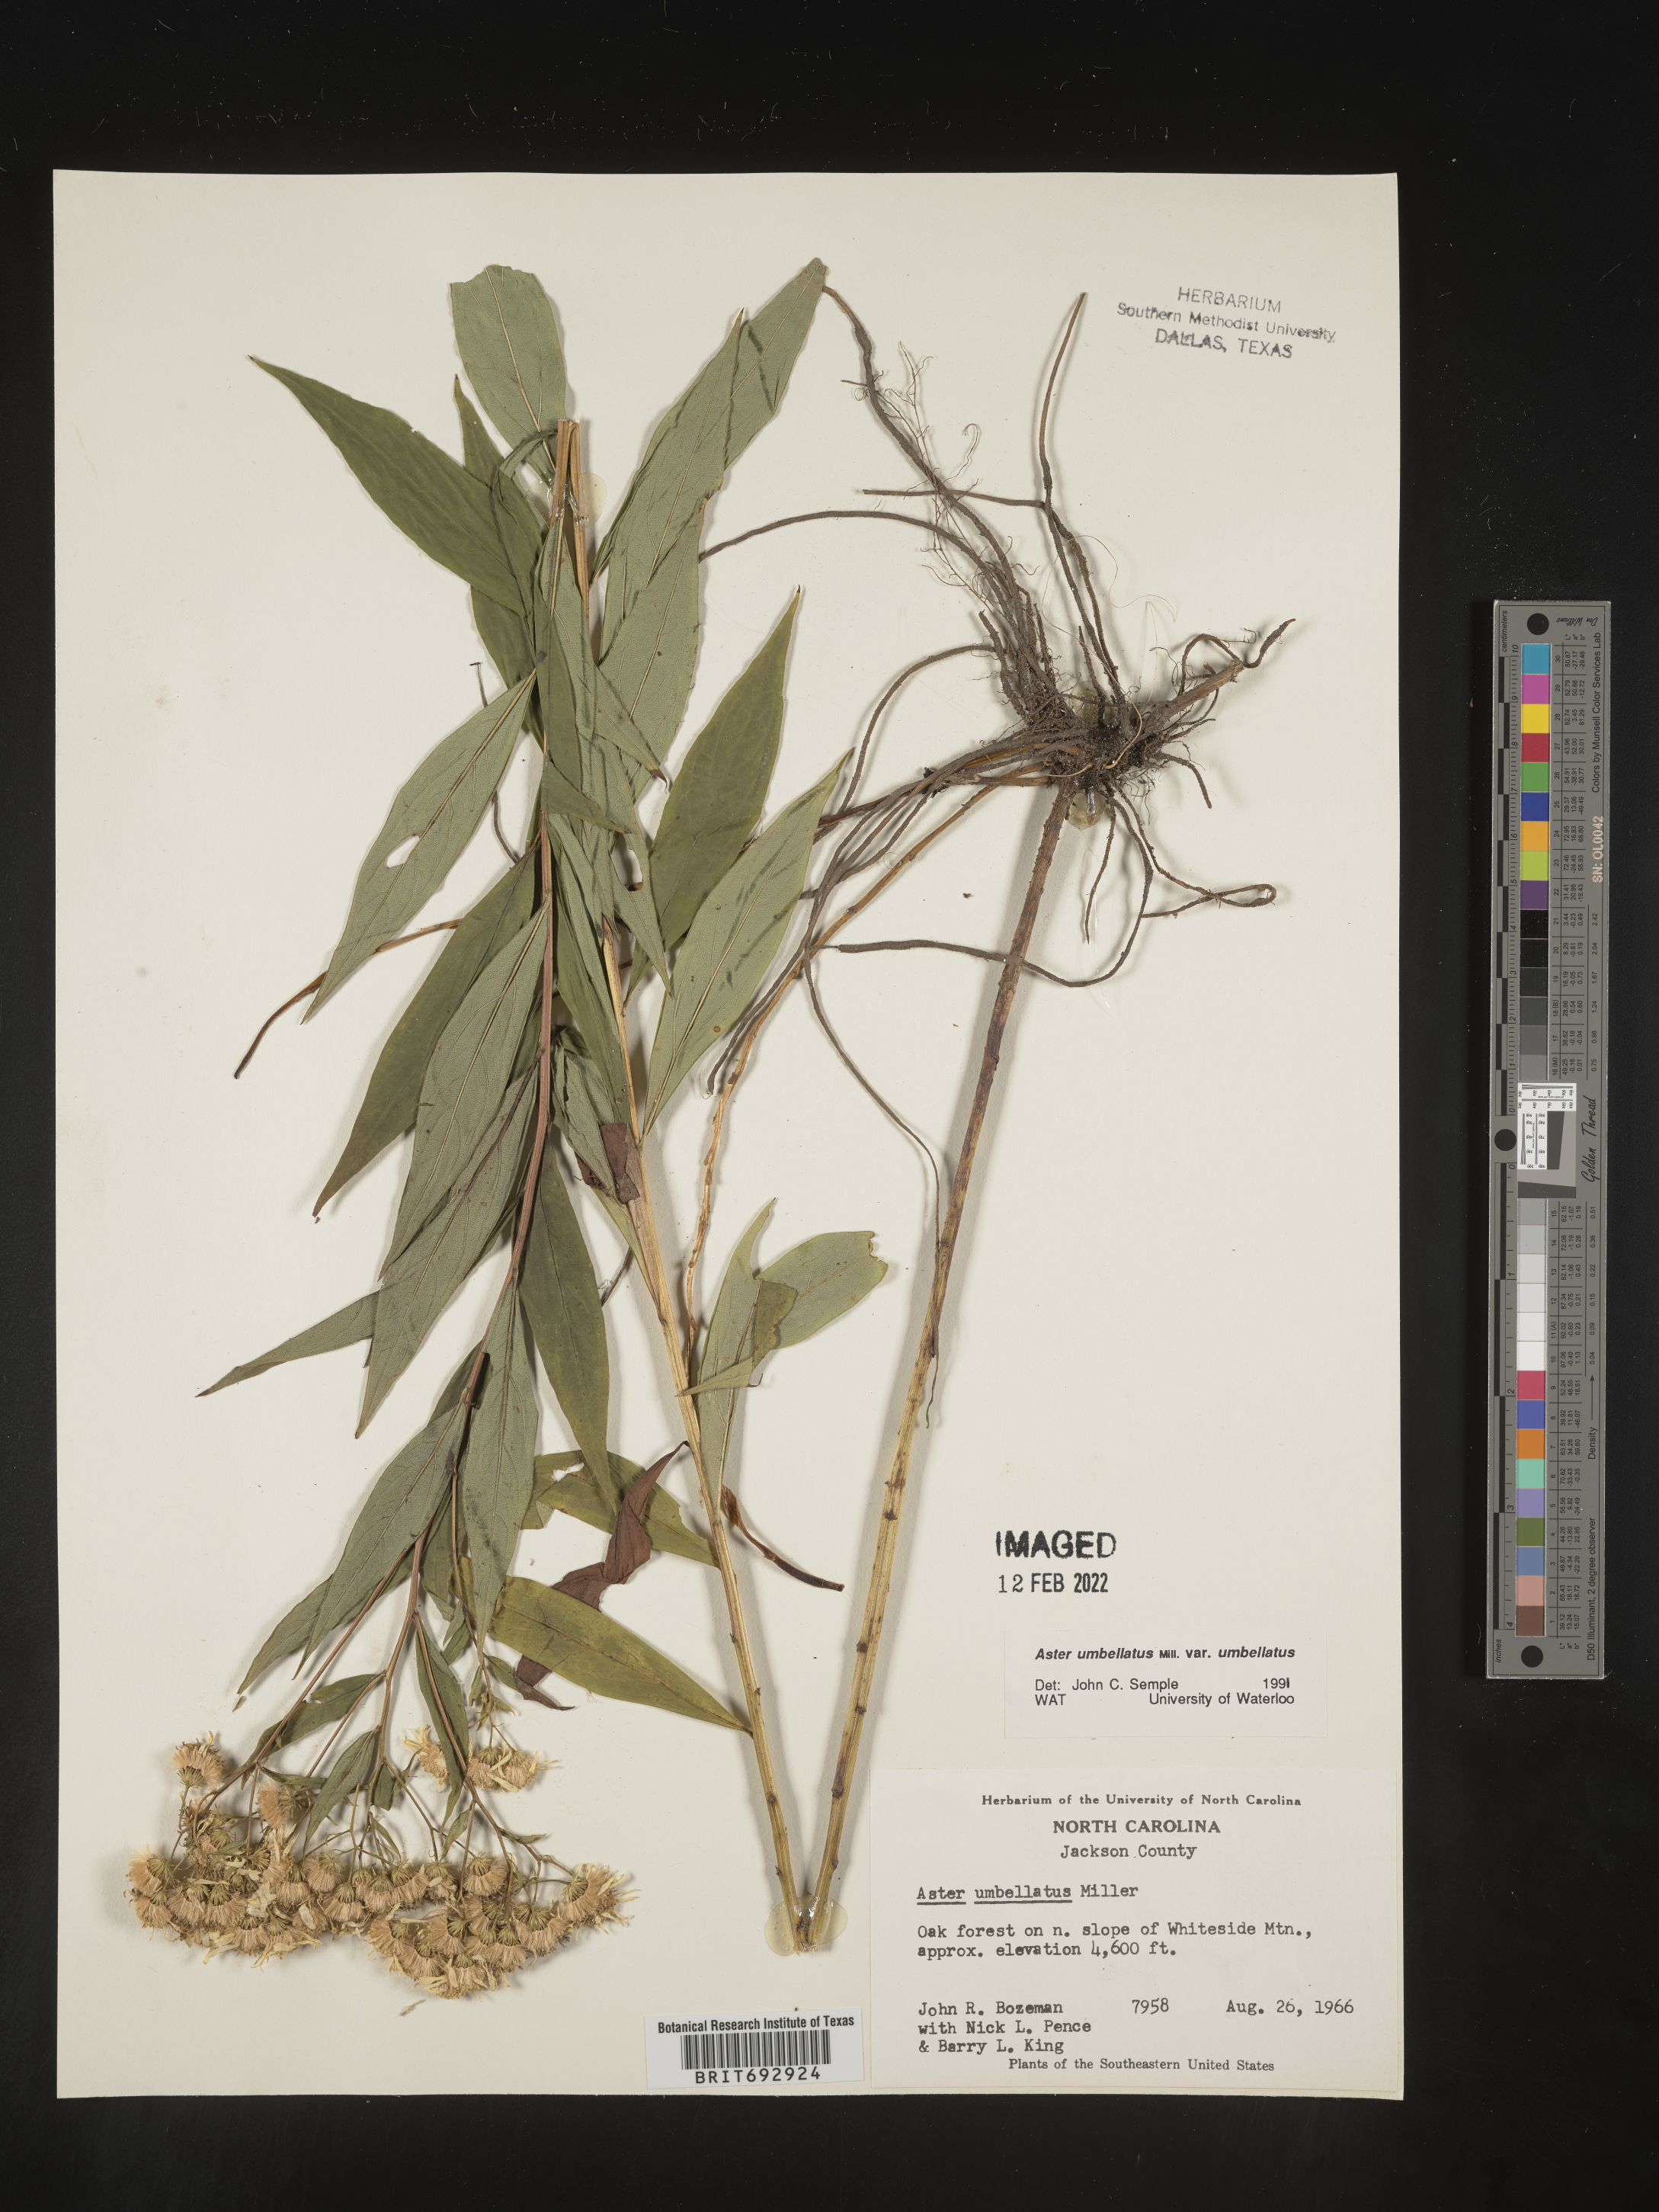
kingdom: Plantae
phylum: Tracheophyta
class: Magnoliopsida
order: Asterales
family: Asteraceae
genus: Doellingeria
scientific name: Doellingeria umbellata
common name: Flat-top white aster
